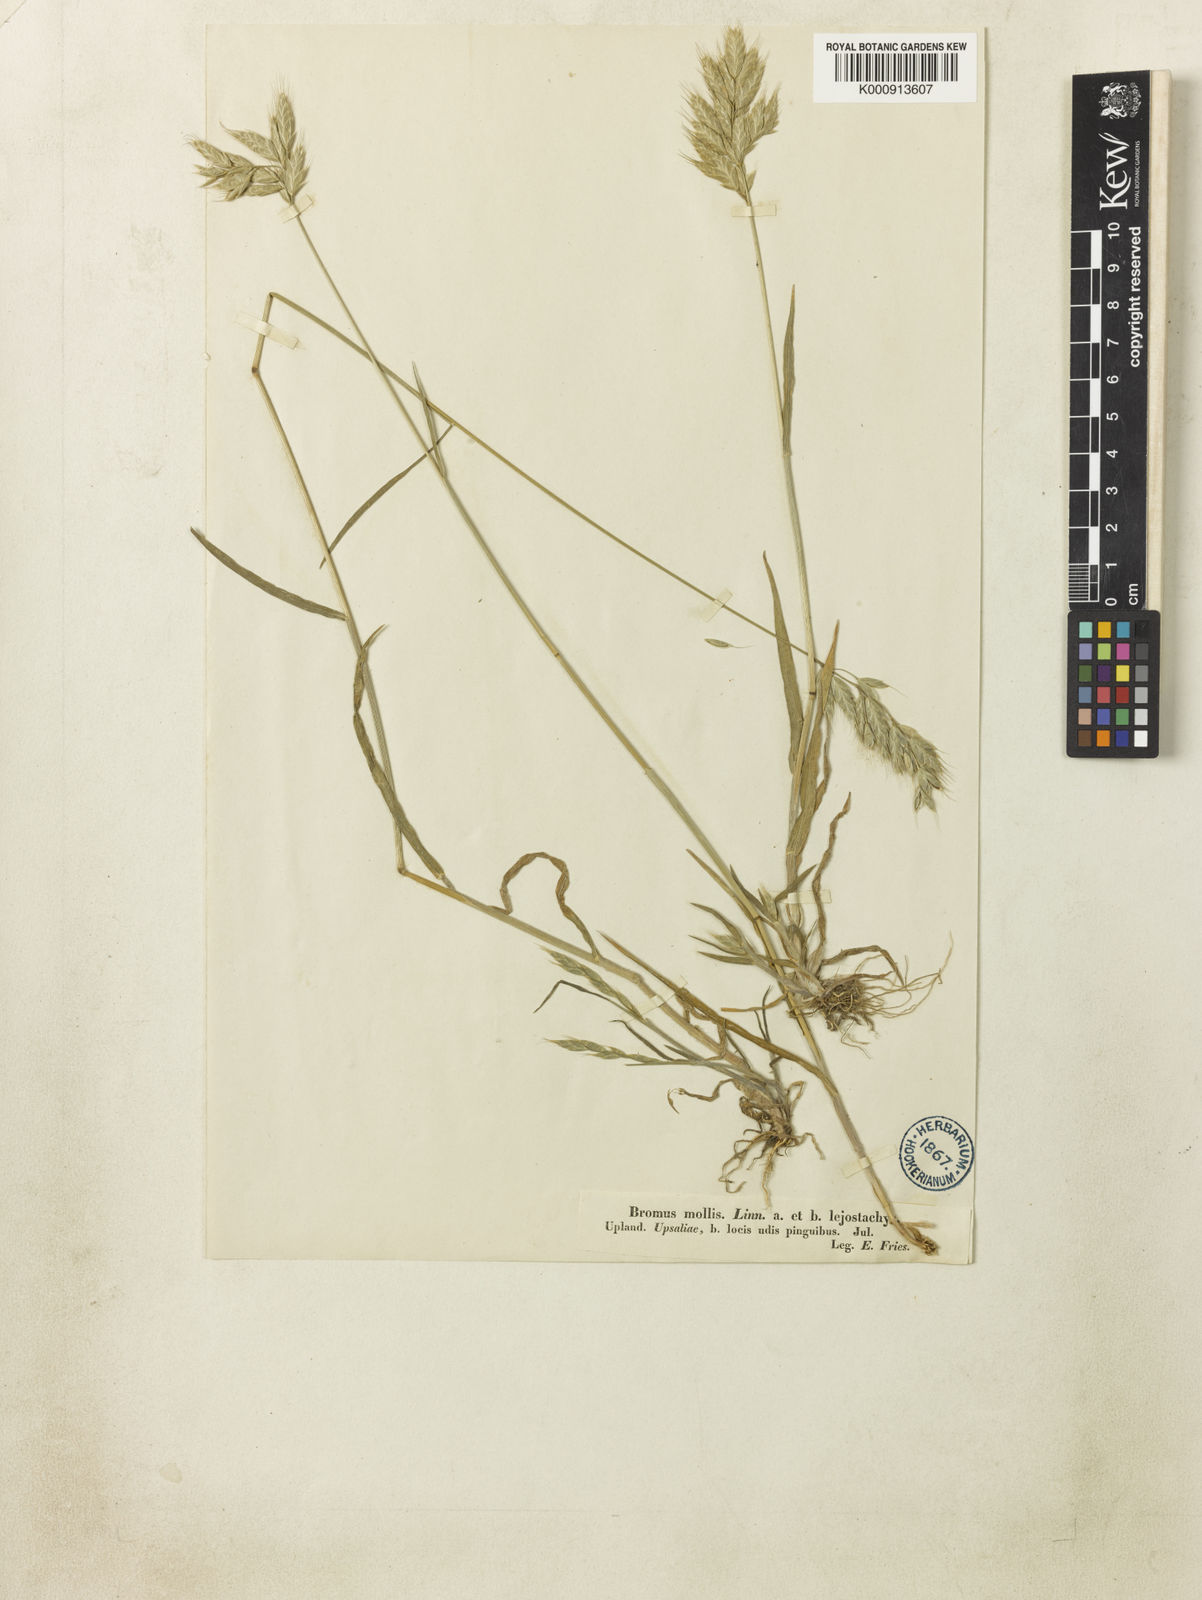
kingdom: Plantae
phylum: Tracheophyta
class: Liliopsida
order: Poales
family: Poaceae
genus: Bromus
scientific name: Bromus hordeaceus
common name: Soft brome
